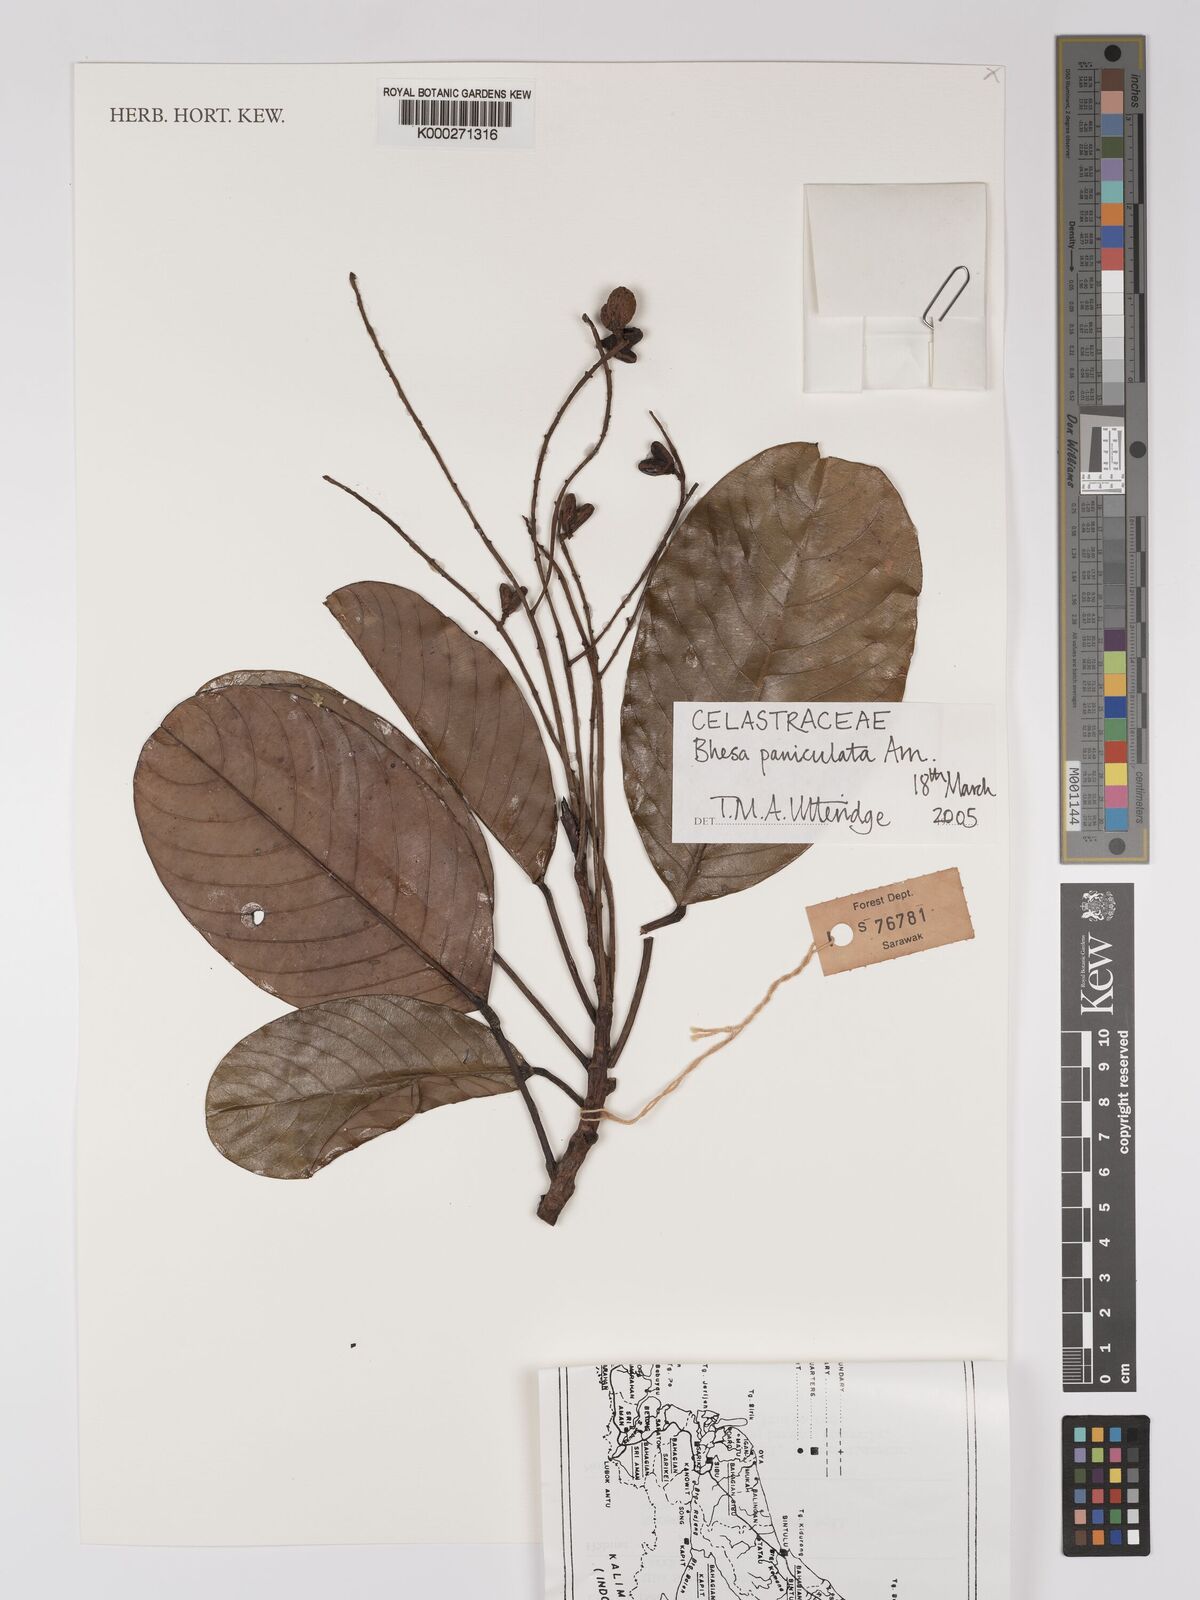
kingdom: Plantae
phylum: Tracheophyta
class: Magnoliopsida
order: Malpighiales
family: Centroplacaceae
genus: Bhesa
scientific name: Bhesa paniculata
